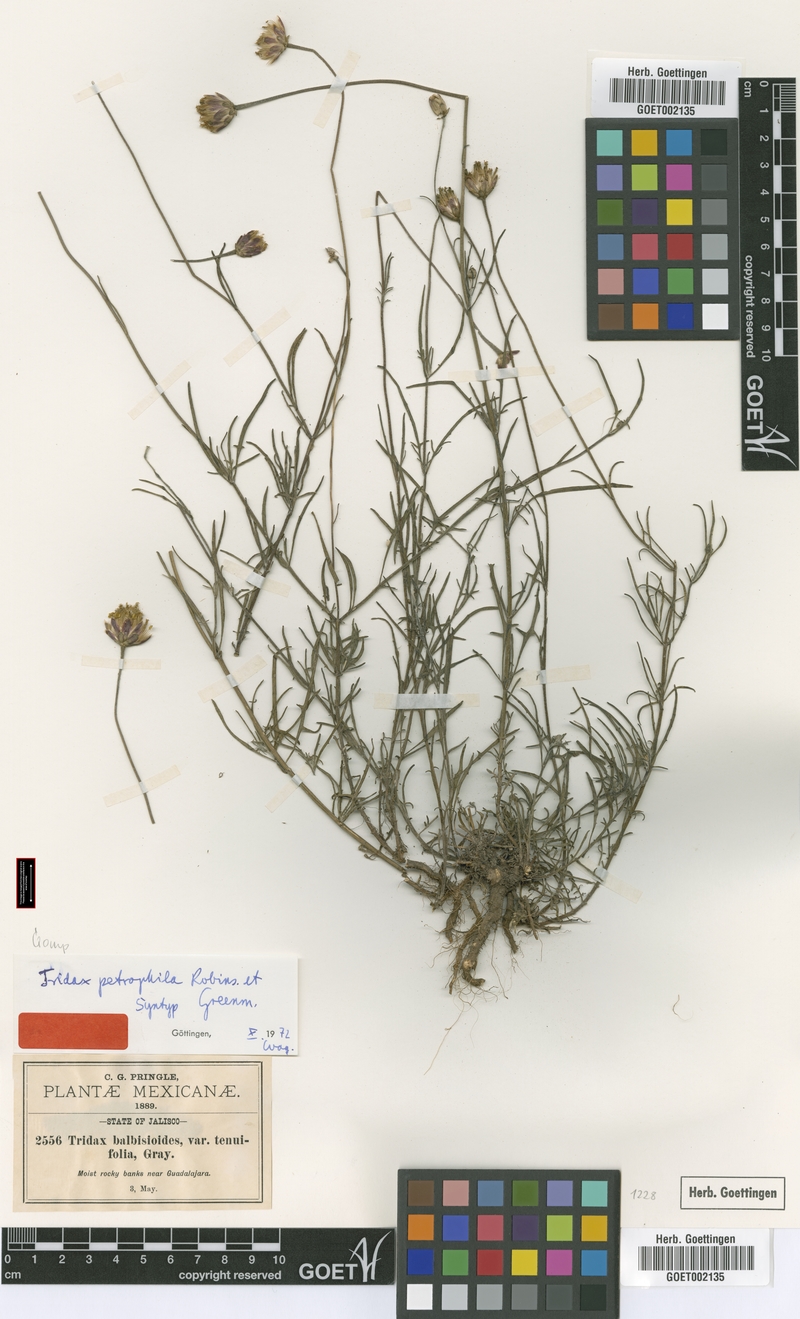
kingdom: Plantae
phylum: Tracheophyta
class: Magnoliopsida
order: Asterales
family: Asteraceae
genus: Tridax
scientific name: Tridax petrophila
